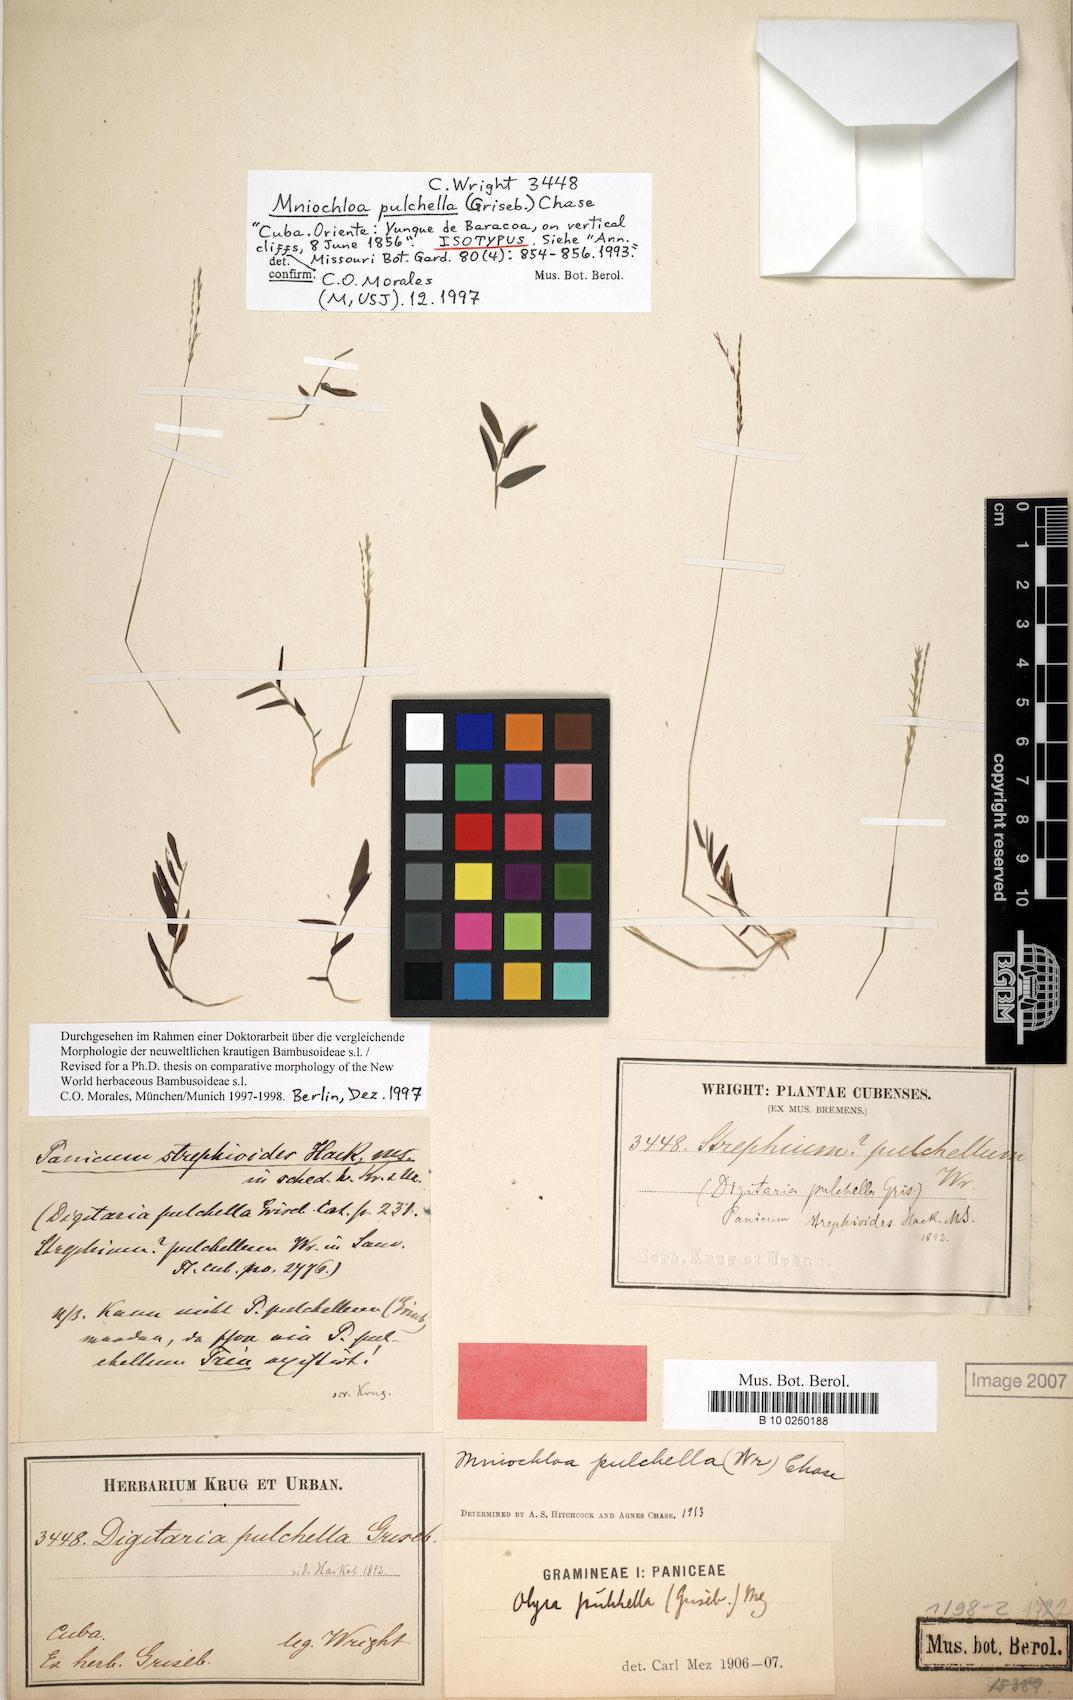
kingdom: Plantae
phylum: Tracheophyta
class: Liliopsida
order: Poales
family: Poaceae
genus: Mniochloa
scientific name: Mniochloa pulchella
